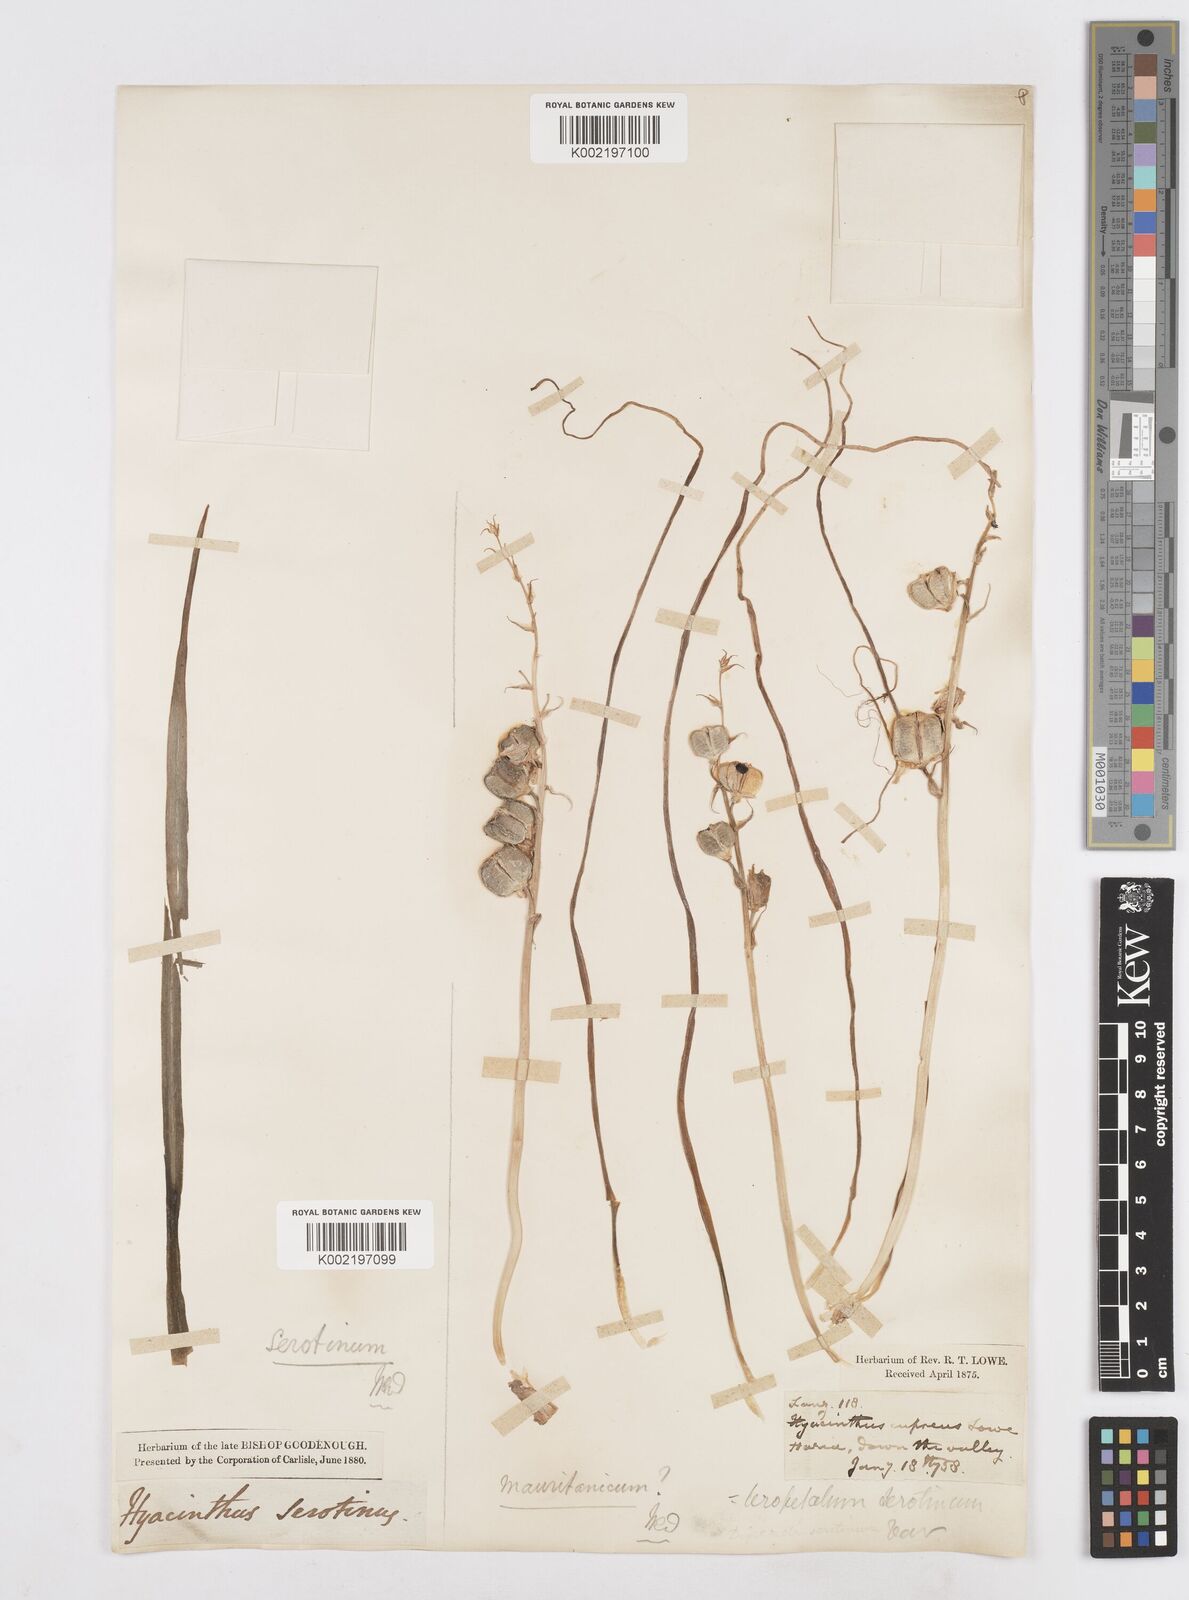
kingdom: Plantae
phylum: Tracheophyta
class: Liliopsida
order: Asparagales
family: Asparagaceae
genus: Dipcadi
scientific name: Dipcadi serotinum
